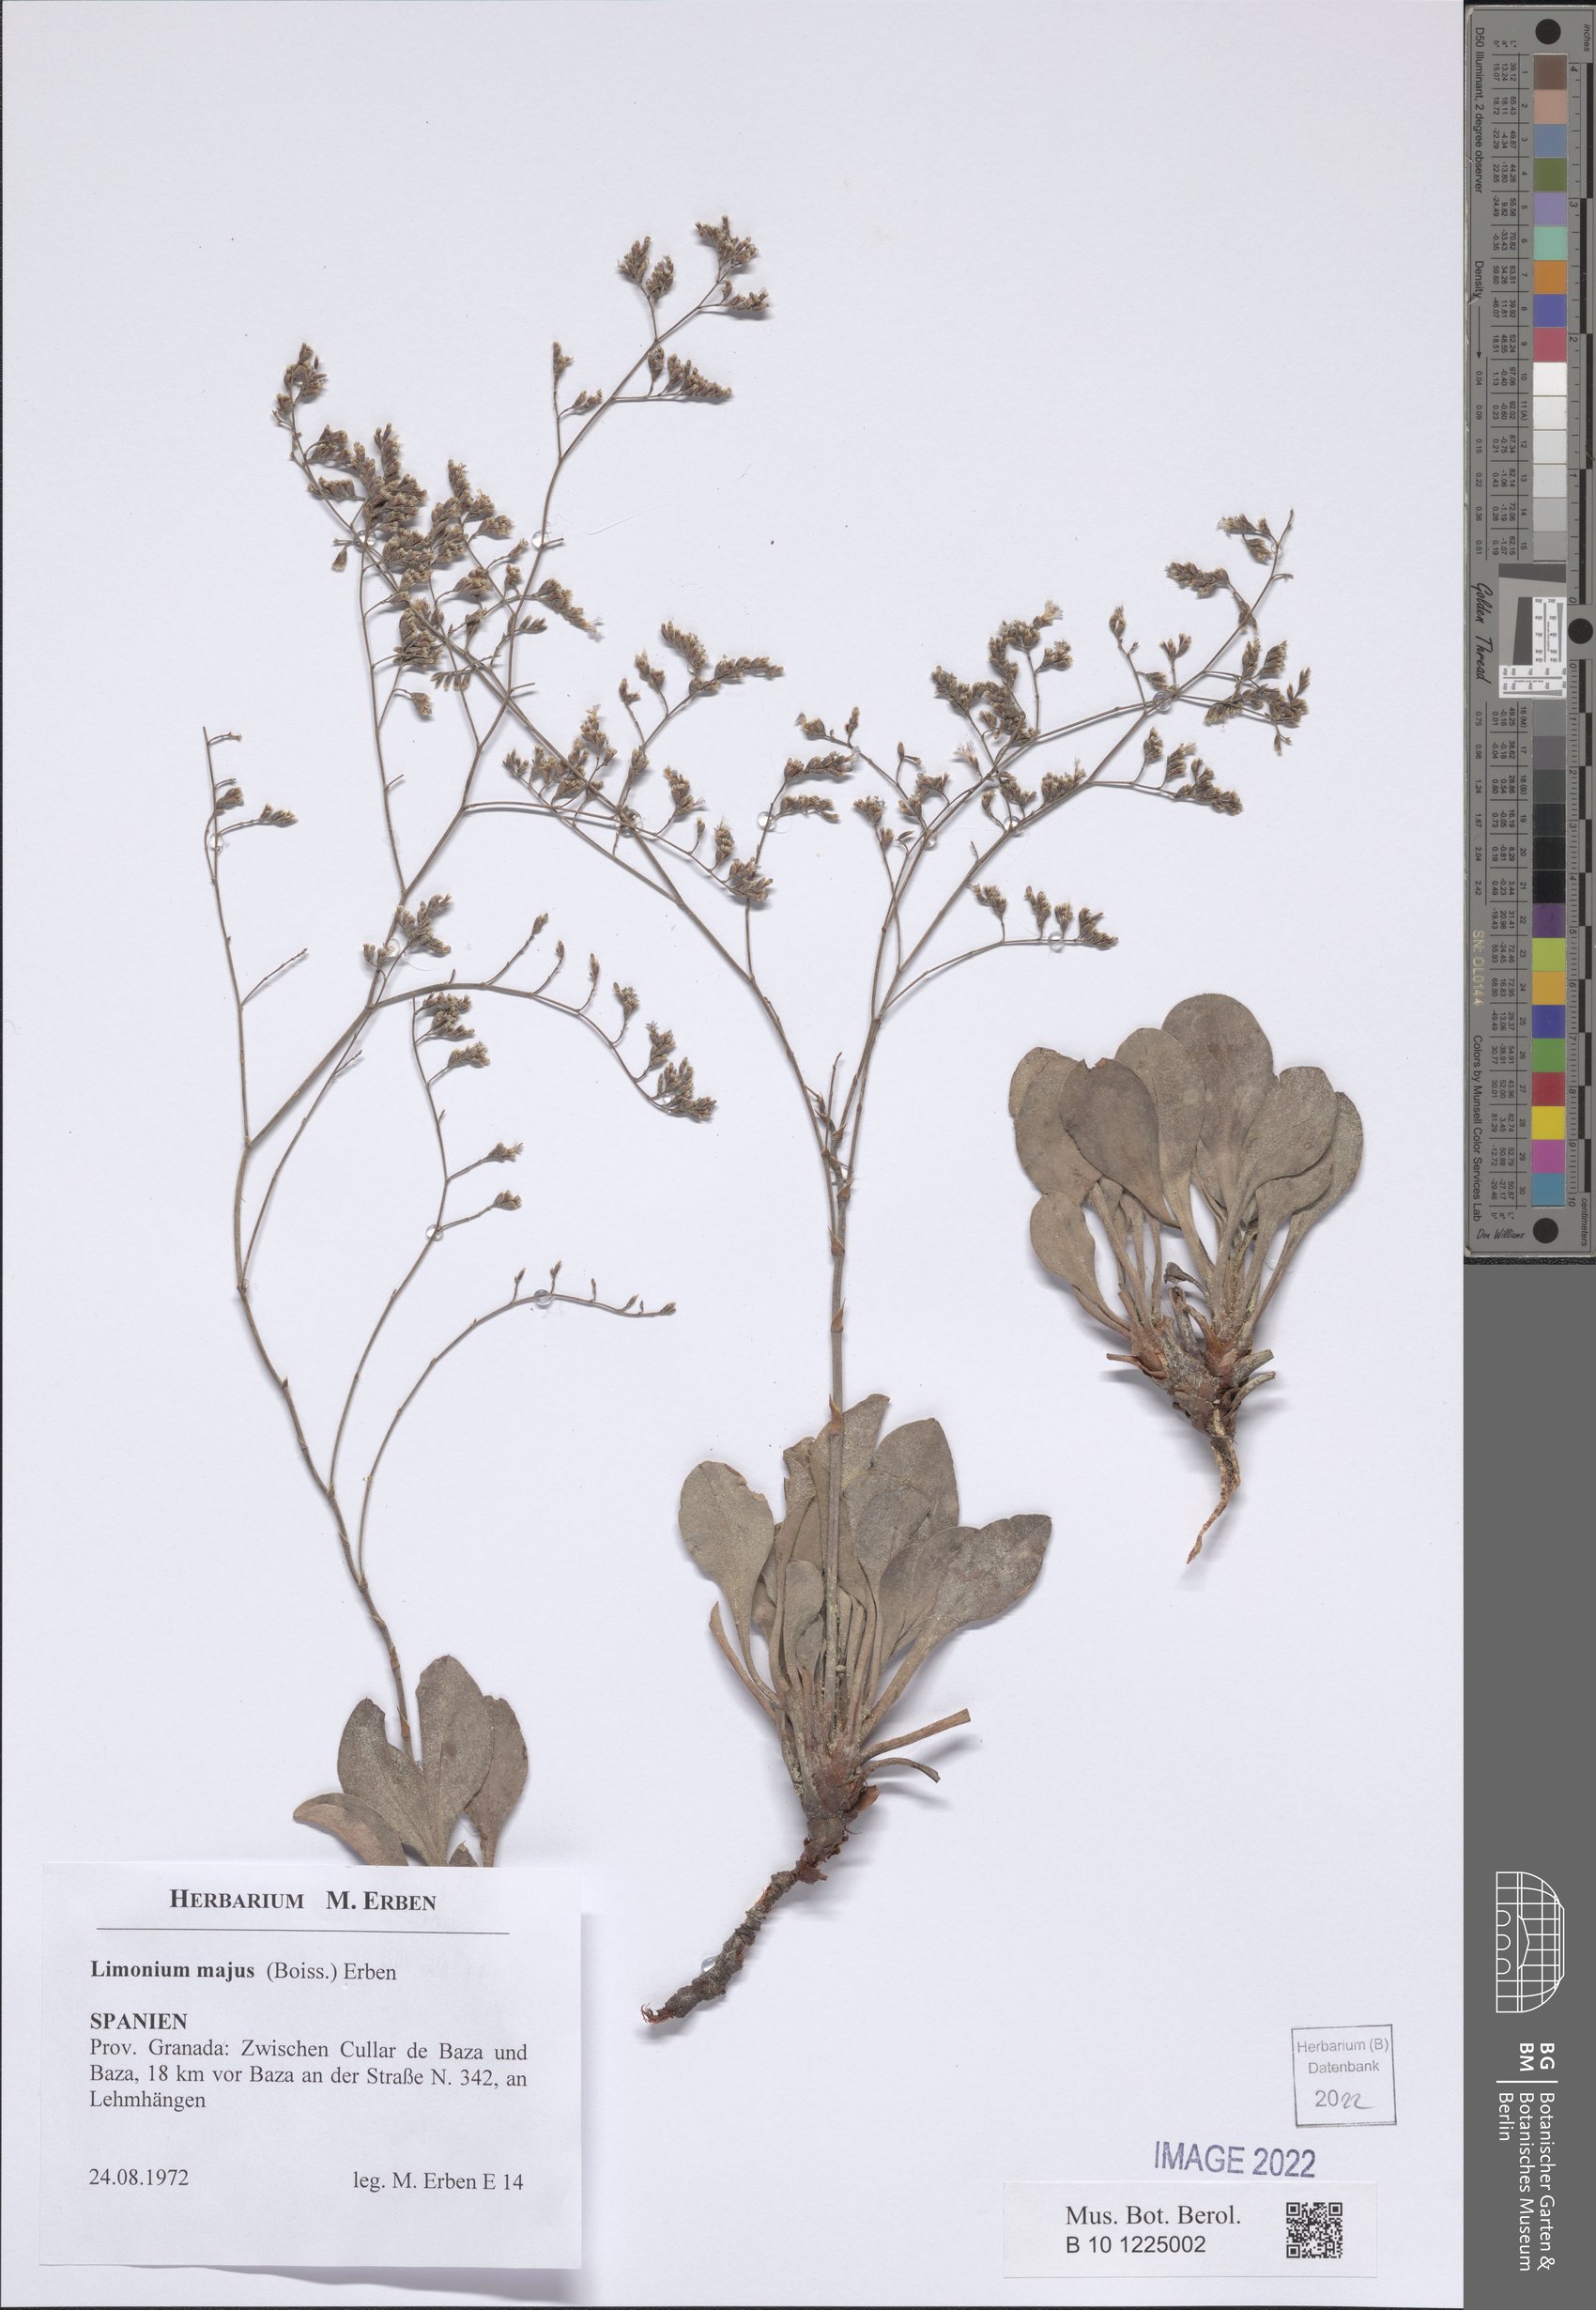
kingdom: Plantae
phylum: Tracheophyta
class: Magnoliopsida
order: Caryophyllales
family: Plumbaginaceae
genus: Limonium
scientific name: Limonium majus
